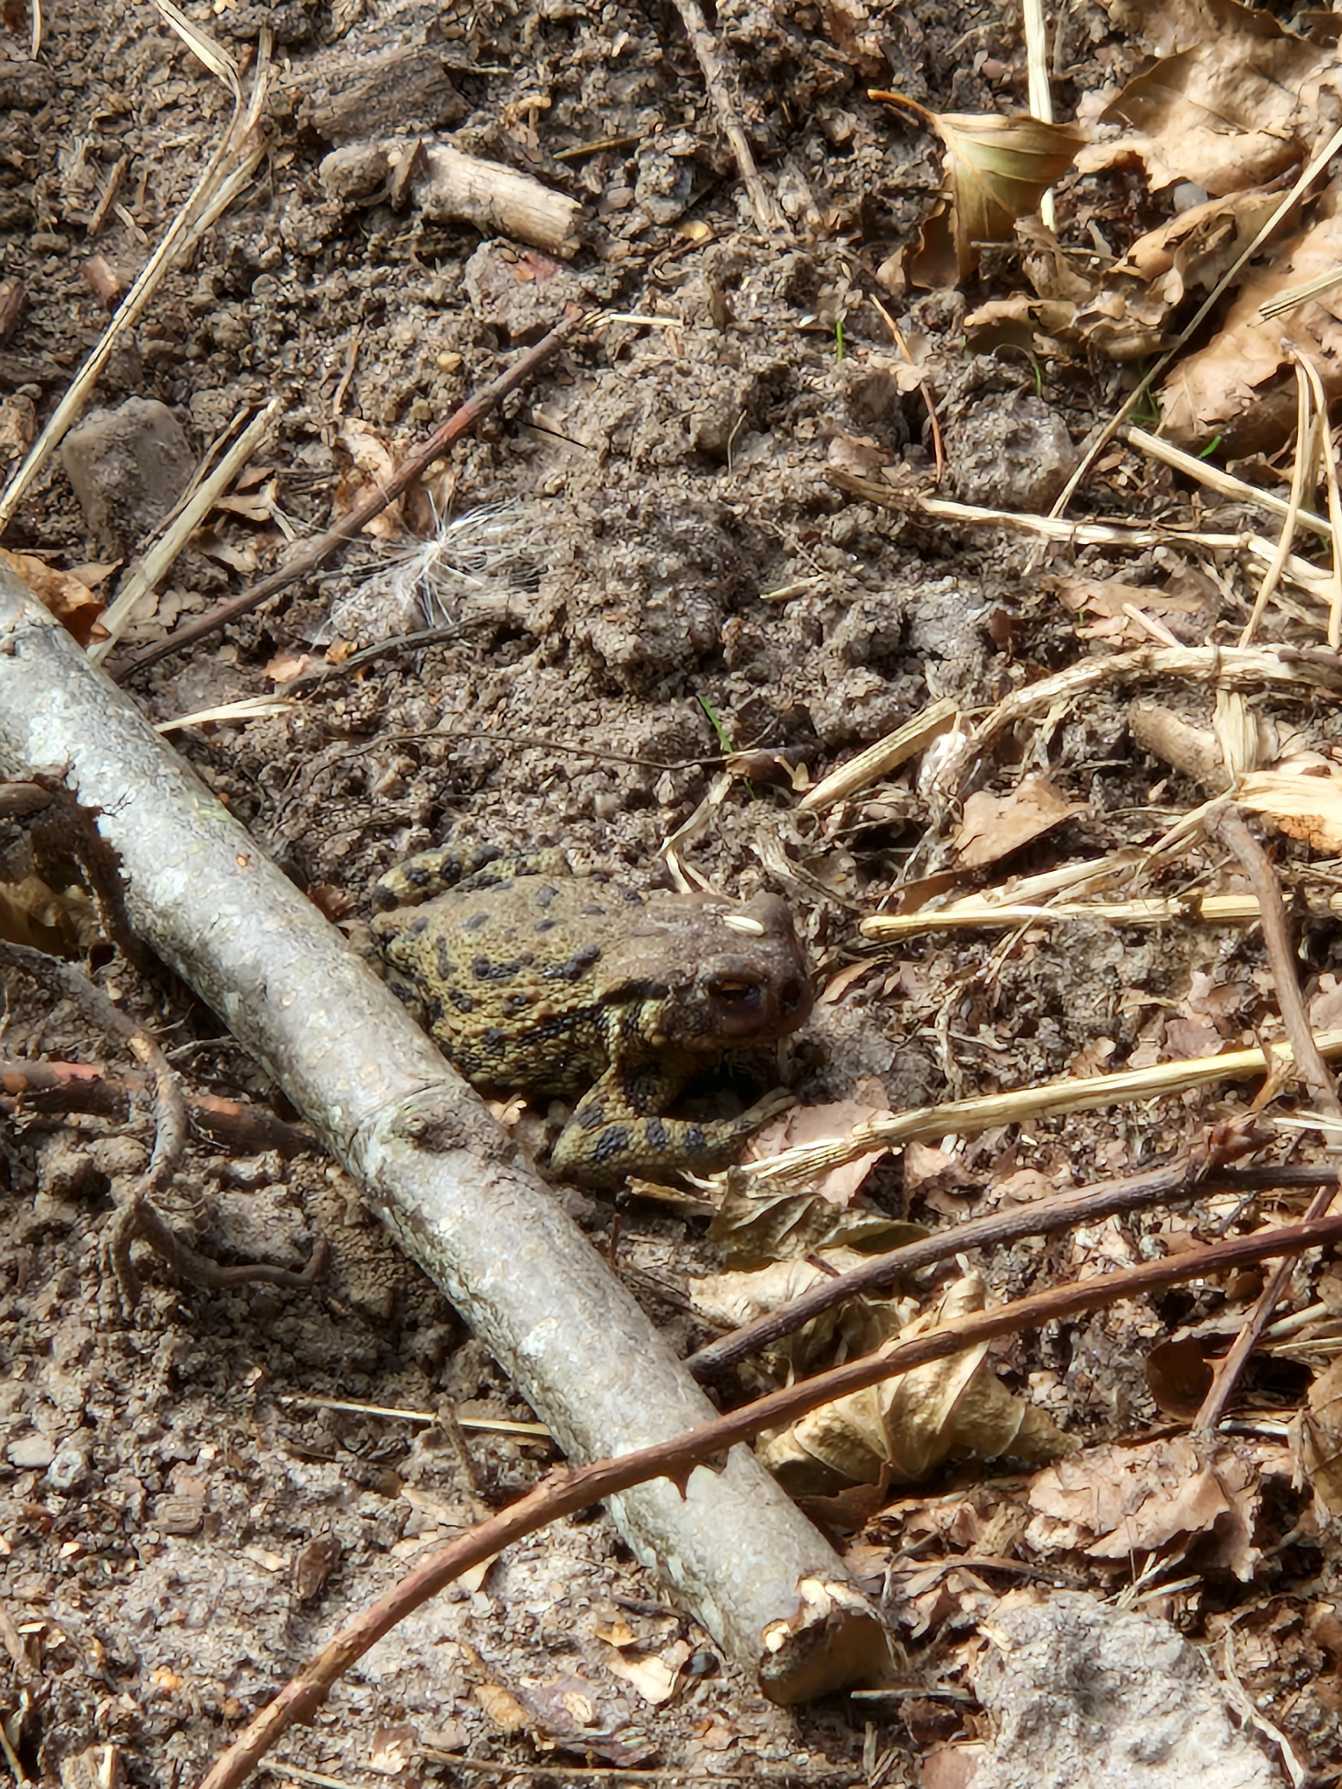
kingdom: Animalia
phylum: Chordata
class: Amphibia
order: Anura
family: Bufonidae
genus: Bufo
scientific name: Bufo bufo
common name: Skrubtudse
